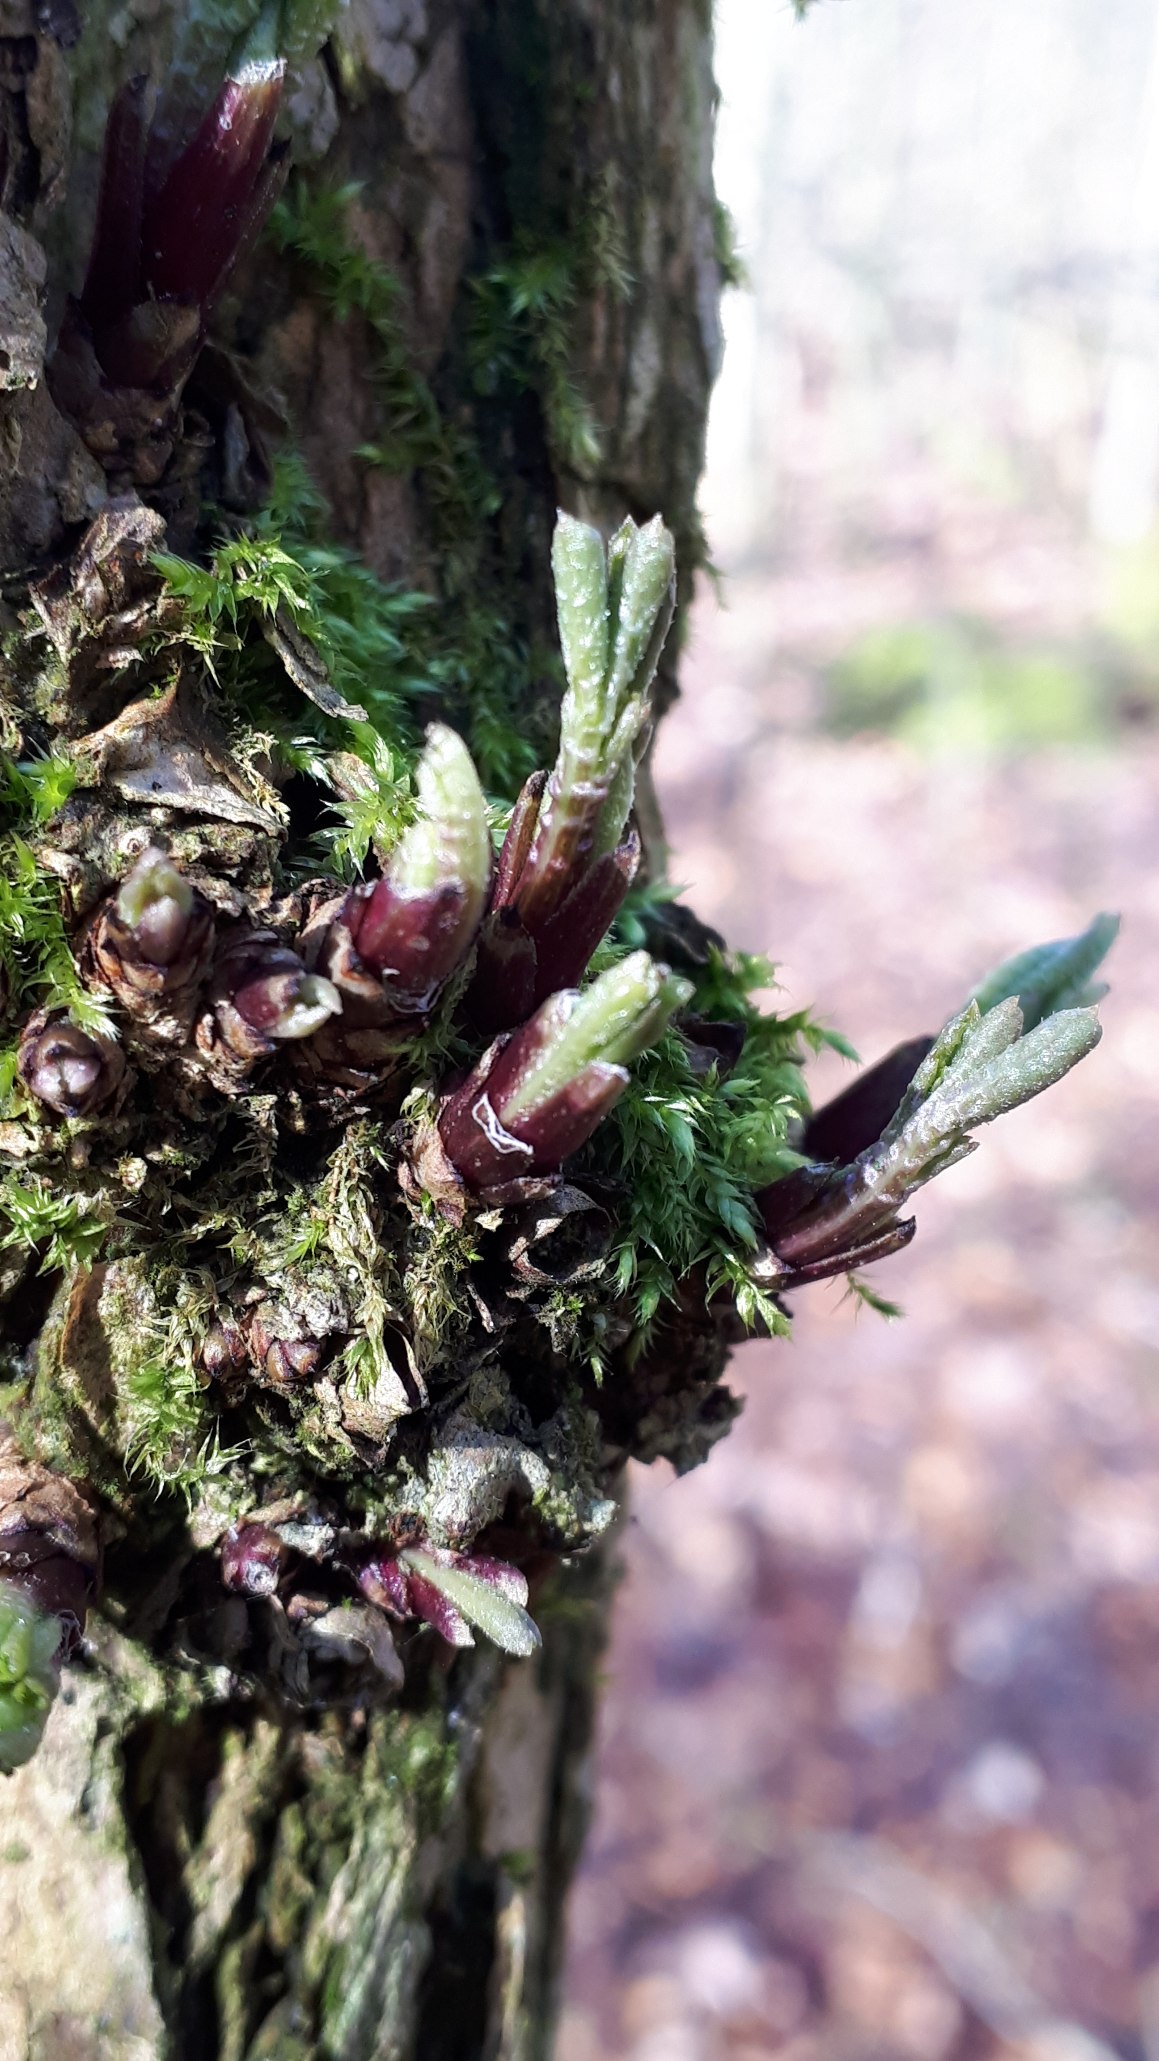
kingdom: Plantae
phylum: Tracheophyta
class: Magnoliopsida
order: Dipsacales
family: Viburnaceae
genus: Sambucus
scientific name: Sambucus nigra
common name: Almindelig hyld
